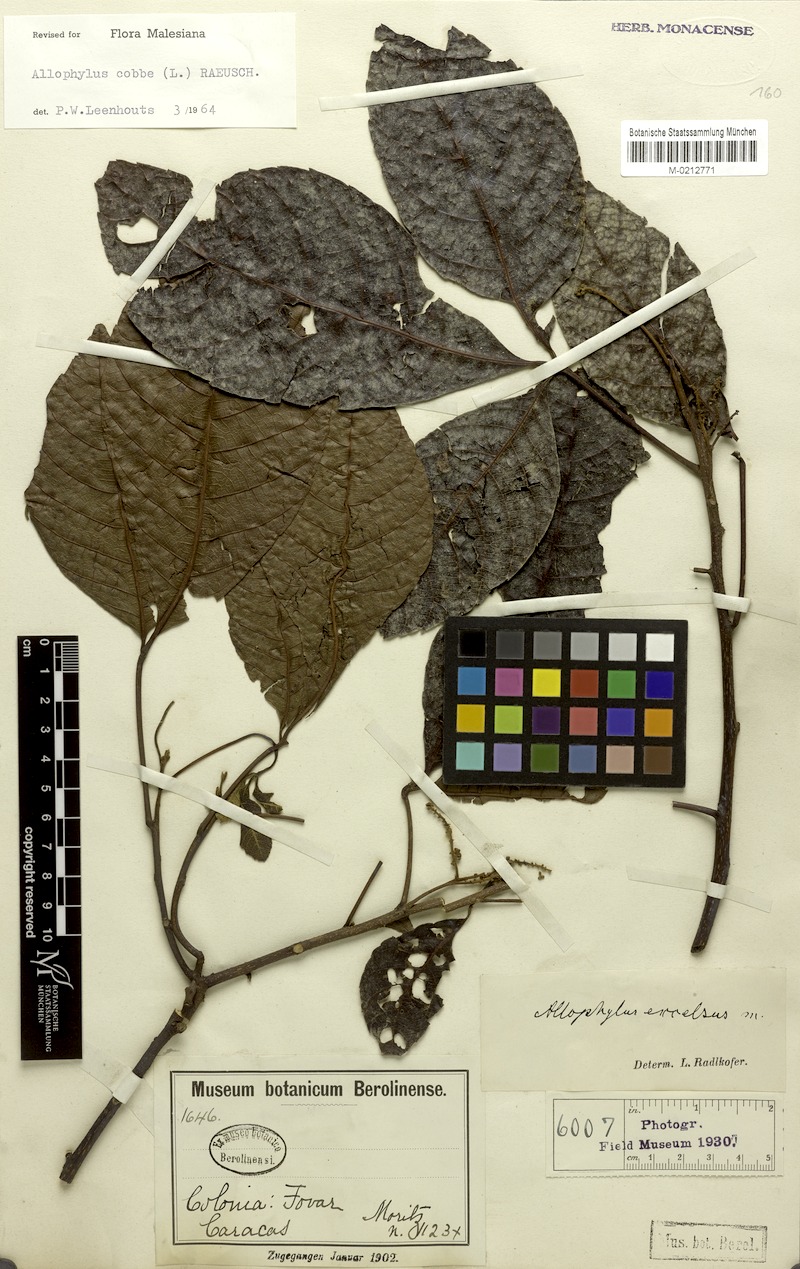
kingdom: Plantae
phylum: Tracheophyta
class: Magnoliopsida
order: Sapindales
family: Sapindaceae
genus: Allophylus
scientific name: Allophylus excelsus
